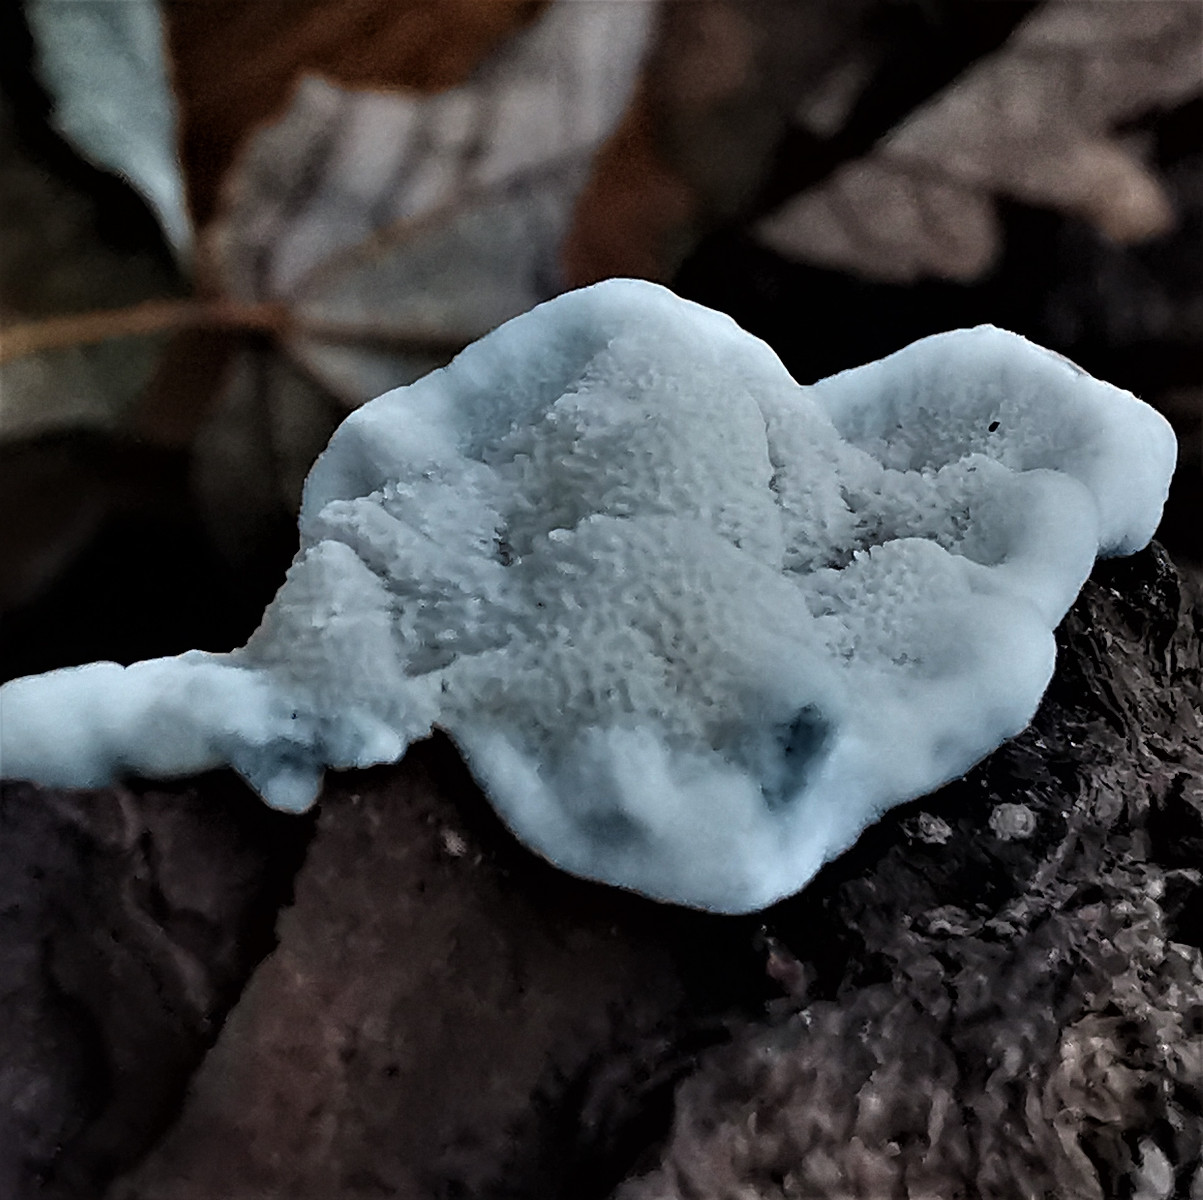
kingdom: Fungi
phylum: Basidiomycota
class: Agaricomycetes
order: Polyporales
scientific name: Polyporales
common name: poresvampordenen
